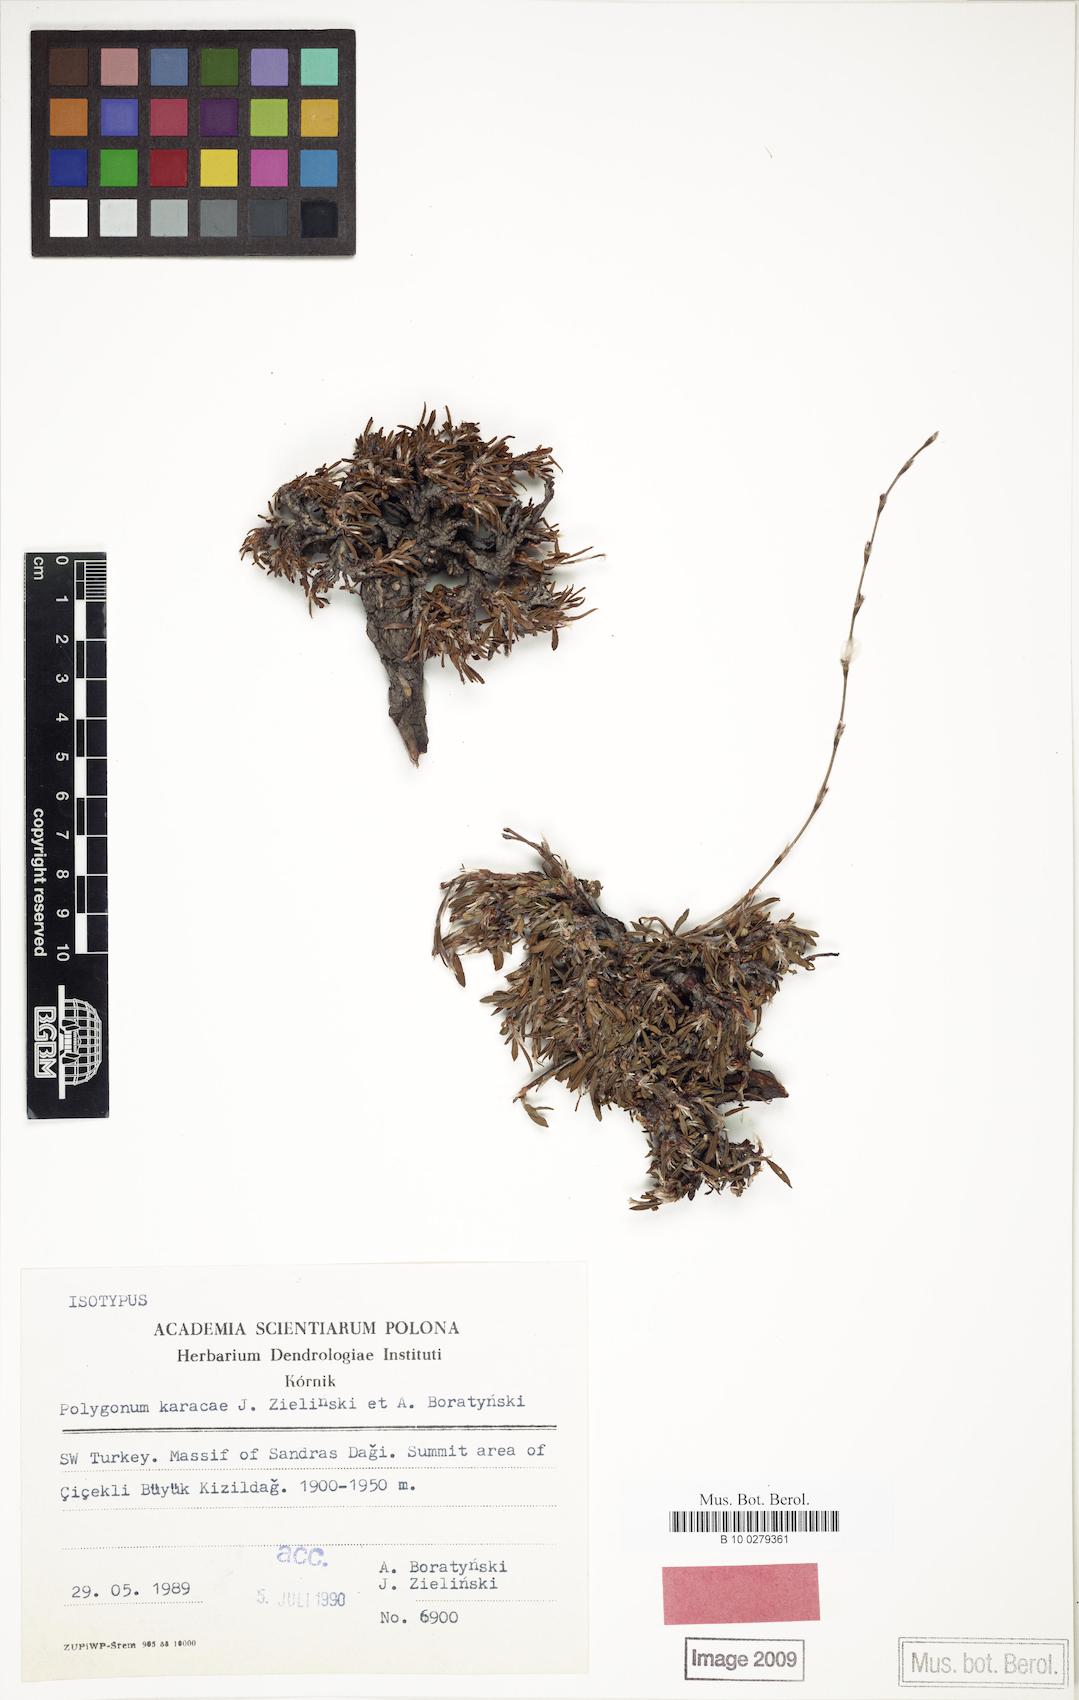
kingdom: Plantae
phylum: Tracheophyta
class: Magnoliopsida
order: Caryophyllales
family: Polygonaceae
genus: Polygonum
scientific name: Polygonum karacae
